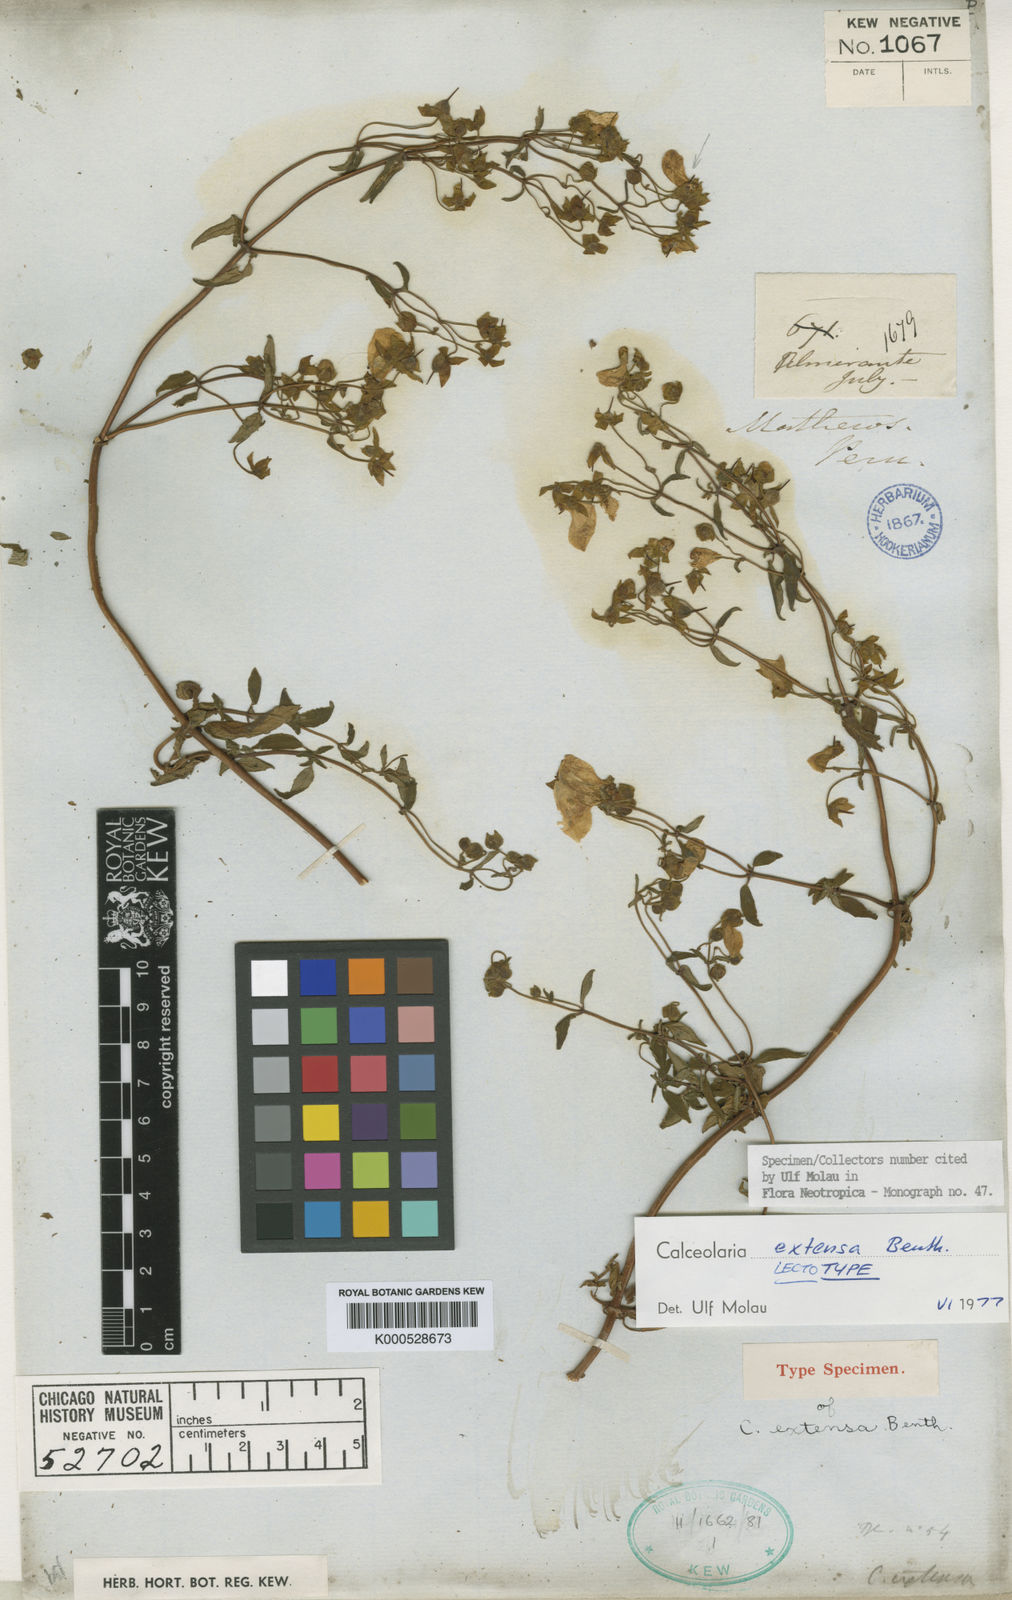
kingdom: Plantae
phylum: Tracheophyta
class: Magnoliopsida
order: Lamiales
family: Calceolariaceae
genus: Calceolaria
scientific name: Calceolaria extensa
